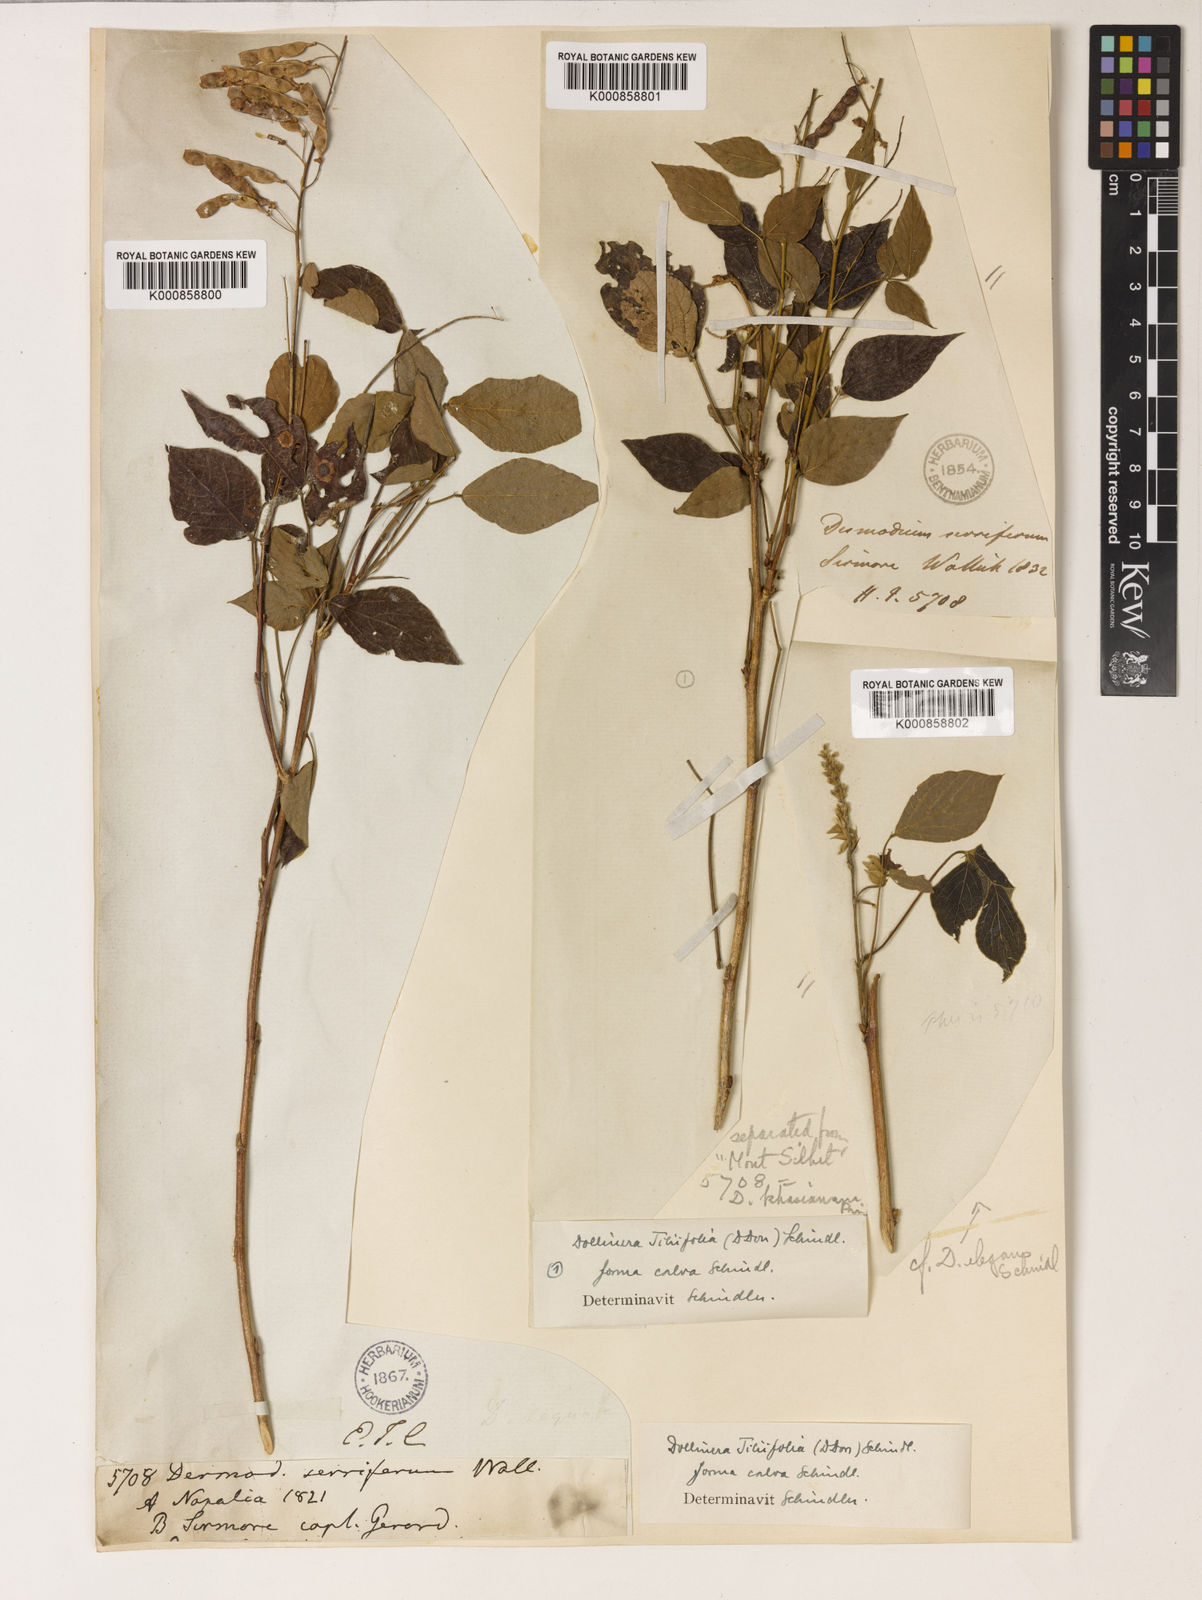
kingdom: Plantae
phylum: Tracheophyta
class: Magnoliopsida
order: Fabales
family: Fabaceae
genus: Sunhangia
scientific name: Sunhangia elegans
